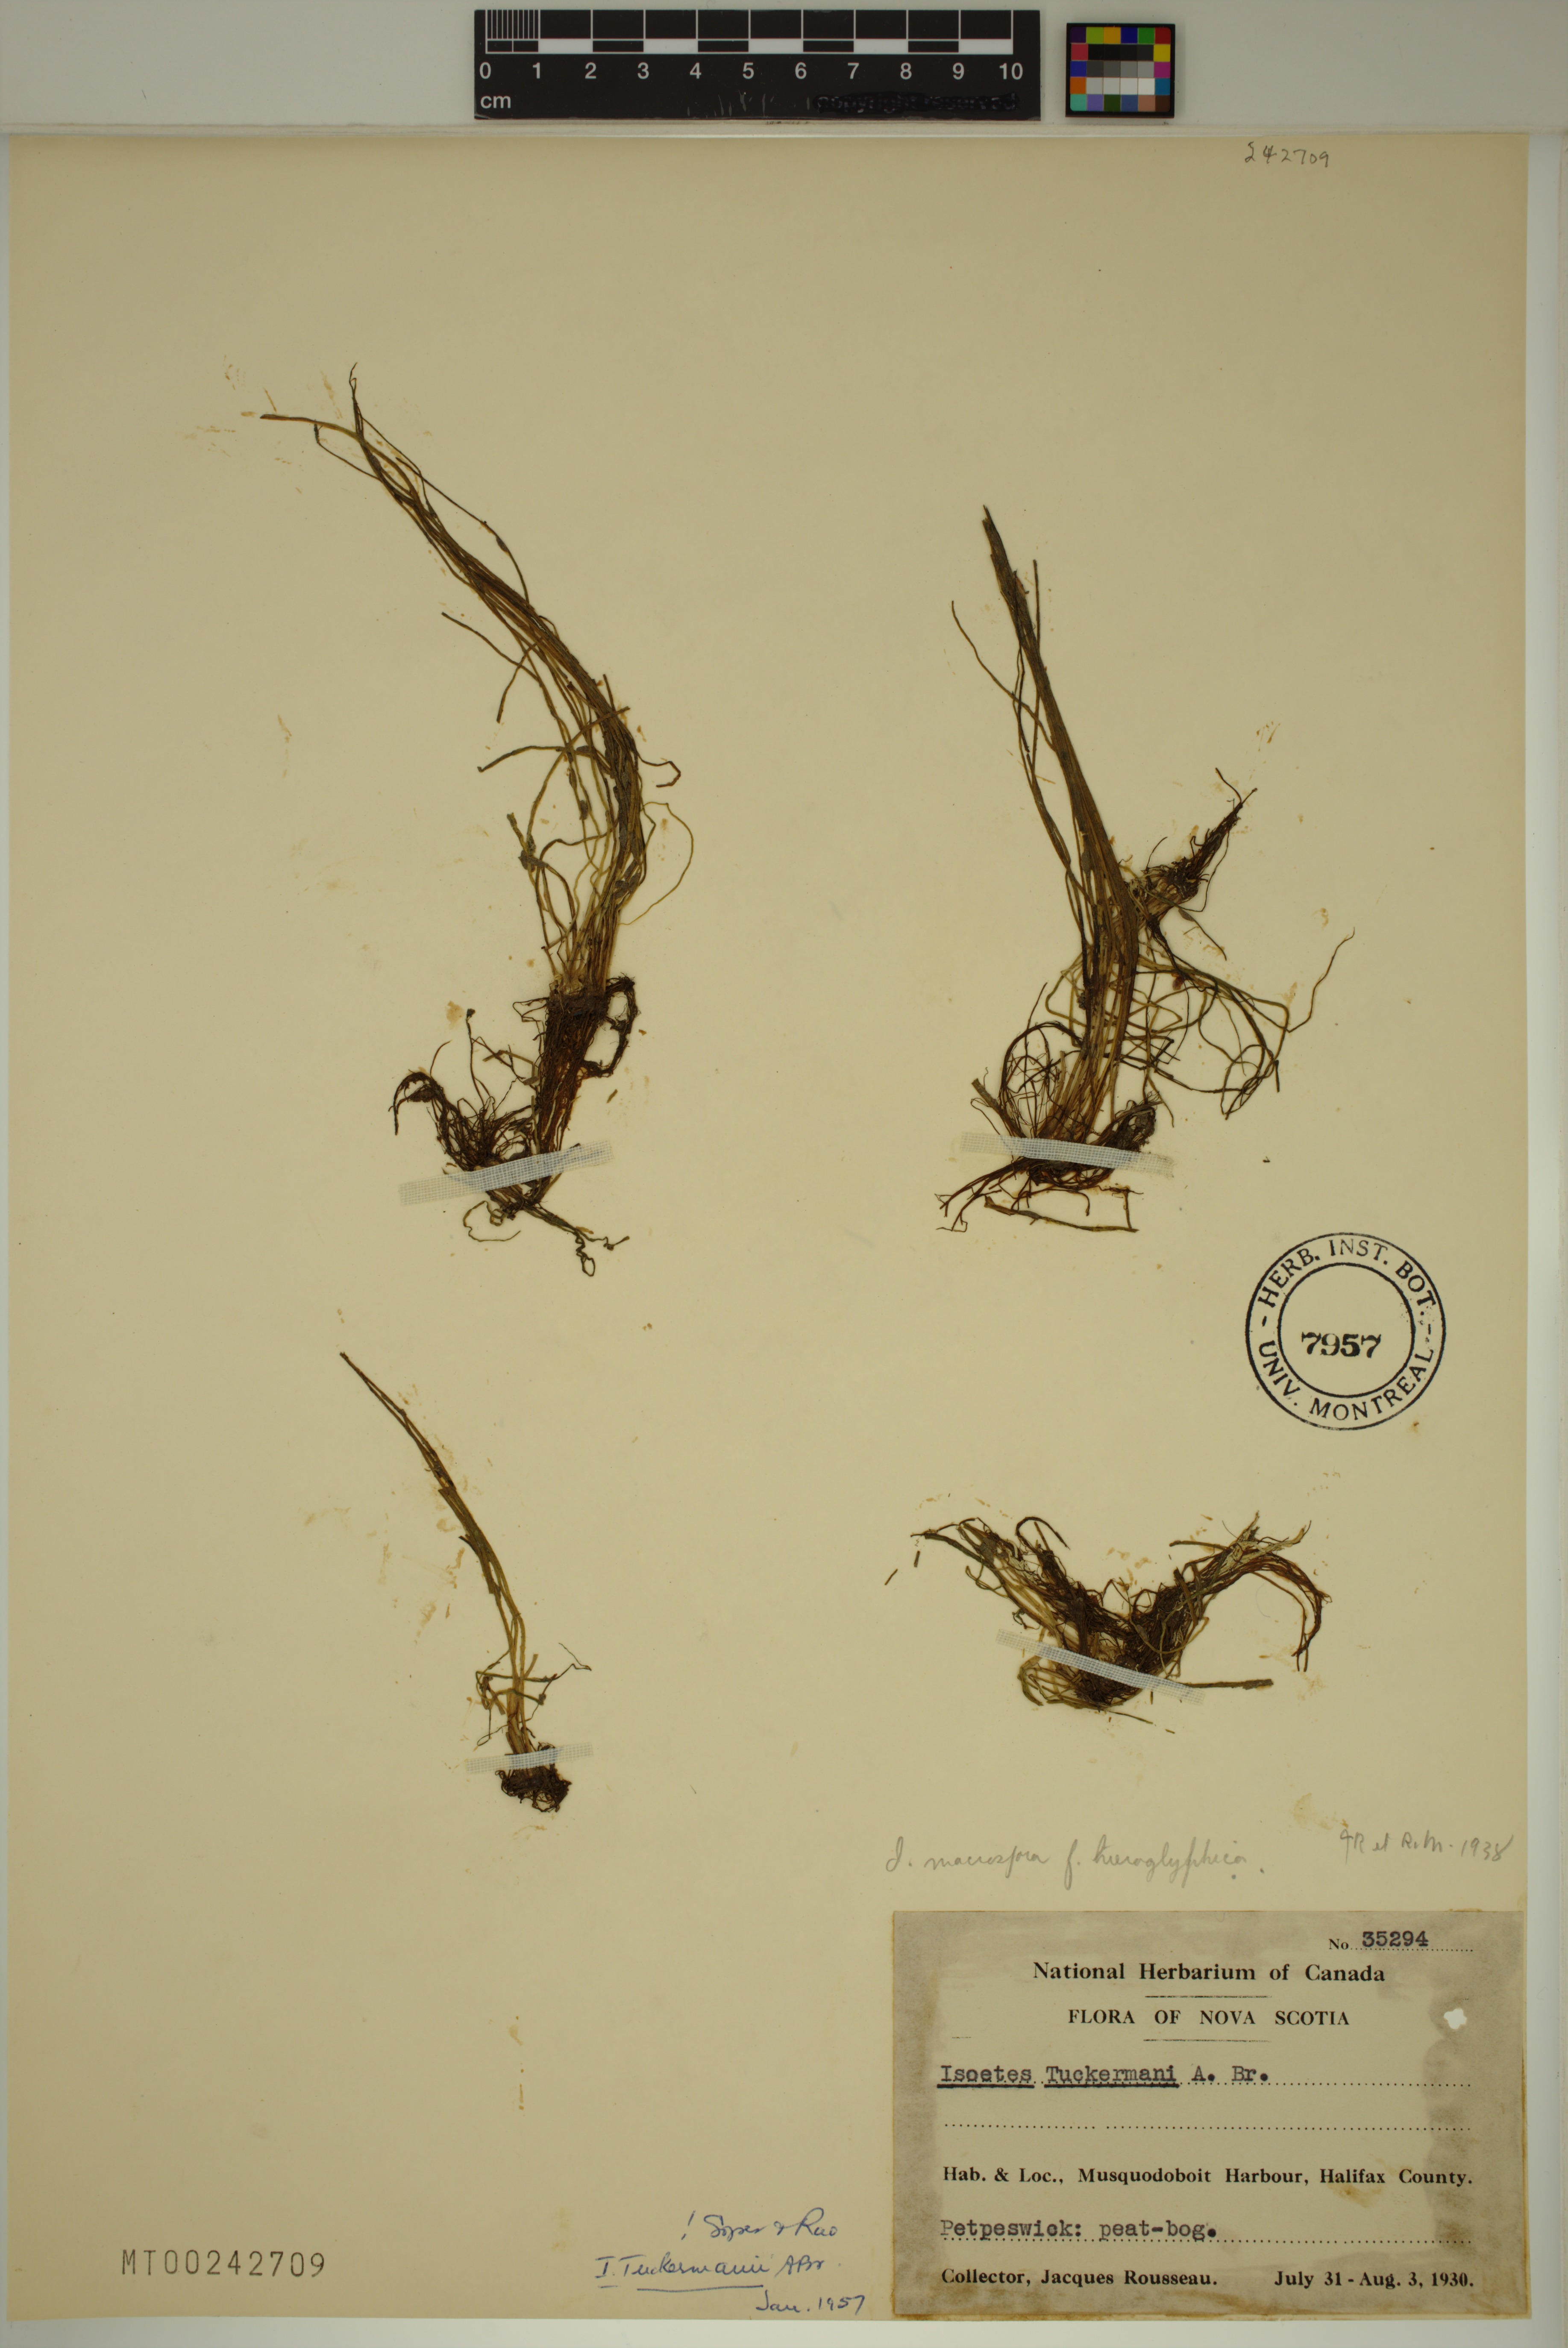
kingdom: Plantae
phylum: Tracheophyta
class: Lycopodiopsida
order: Isoetales
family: Isoetaceae
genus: Isoetes
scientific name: Isoetes tuckermanii
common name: Tuckerman's quillwort
